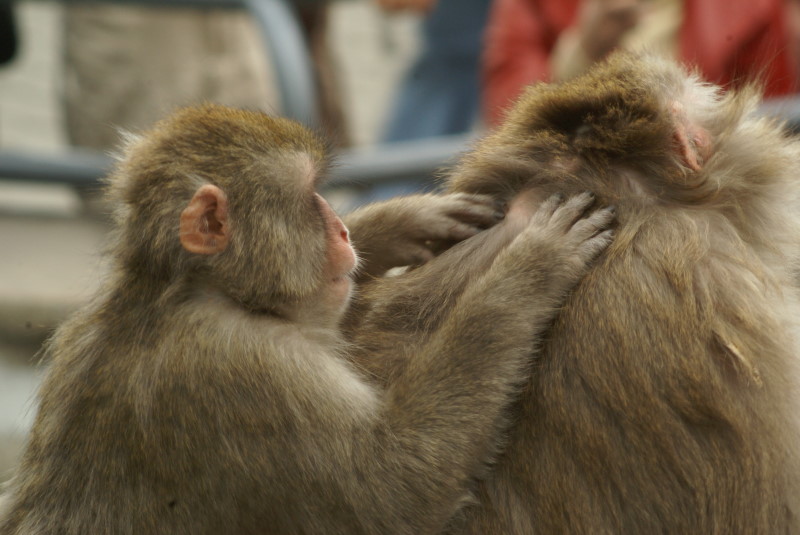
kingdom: Animalia
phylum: Chordata
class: Mammalia
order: Primates
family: Cercopithecidae
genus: Macaca
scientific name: Macaca fuscata
